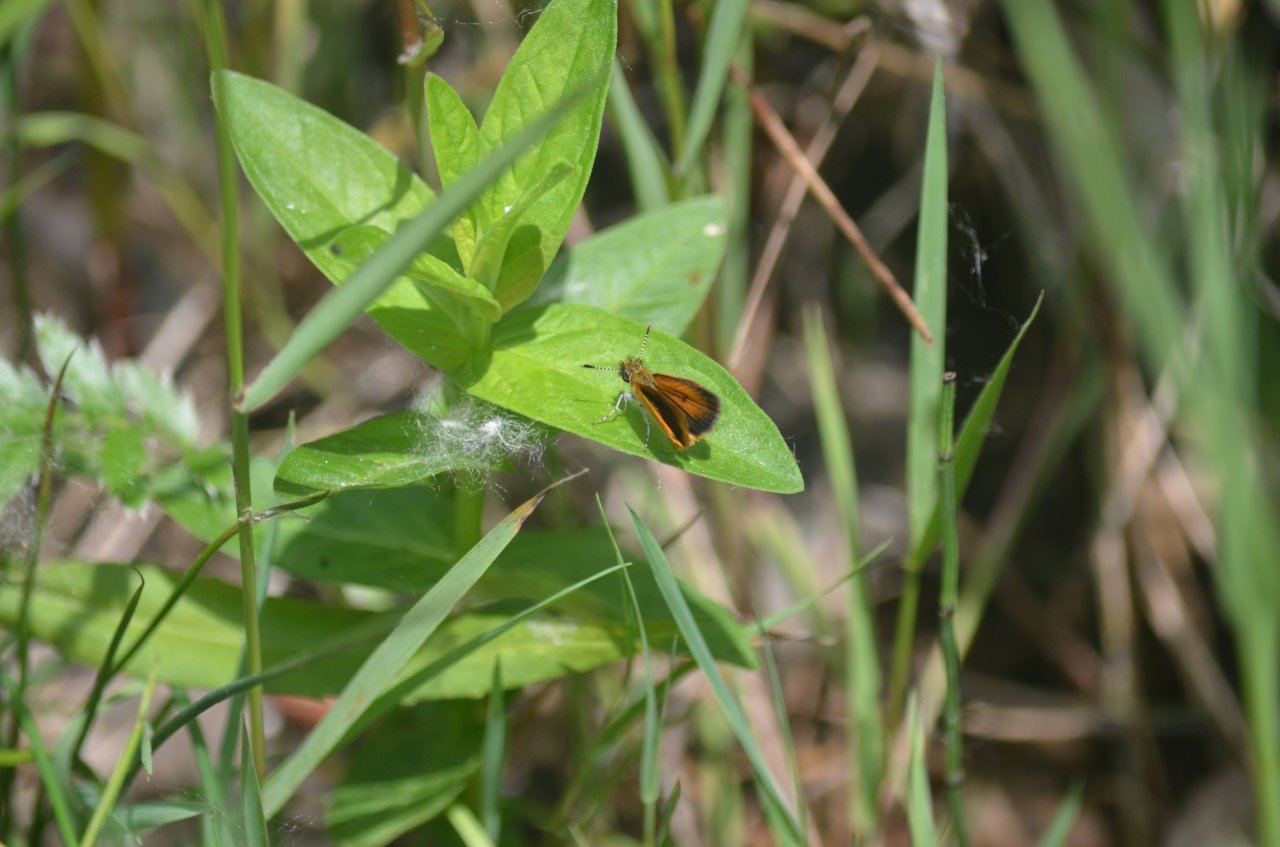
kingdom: Animalia
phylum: Arthropoda
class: Insecta
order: Lepidoptera
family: Hesperiidae
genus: Ancyloxypha
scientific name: Ancyloxypha numitor
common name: Least Skipper
